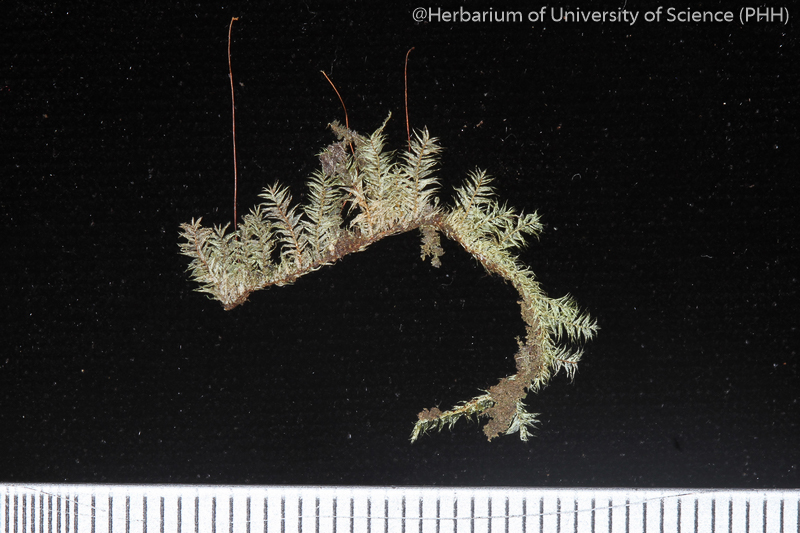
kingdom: Plantae
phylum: Bryophyta
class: Bryopsida
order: Hypnales
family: Pylaisiadelphaceae
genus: Isopterygium
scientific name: Isopterygium lignicola
